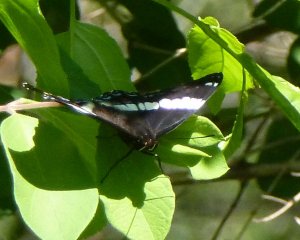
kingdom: Animalia
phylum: Arthropoda
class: Insecta
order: Lepidoptera
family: Nymphalidae
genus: Limenitis
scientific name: Limenitis arthemis
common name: Red-spotted Admiral
